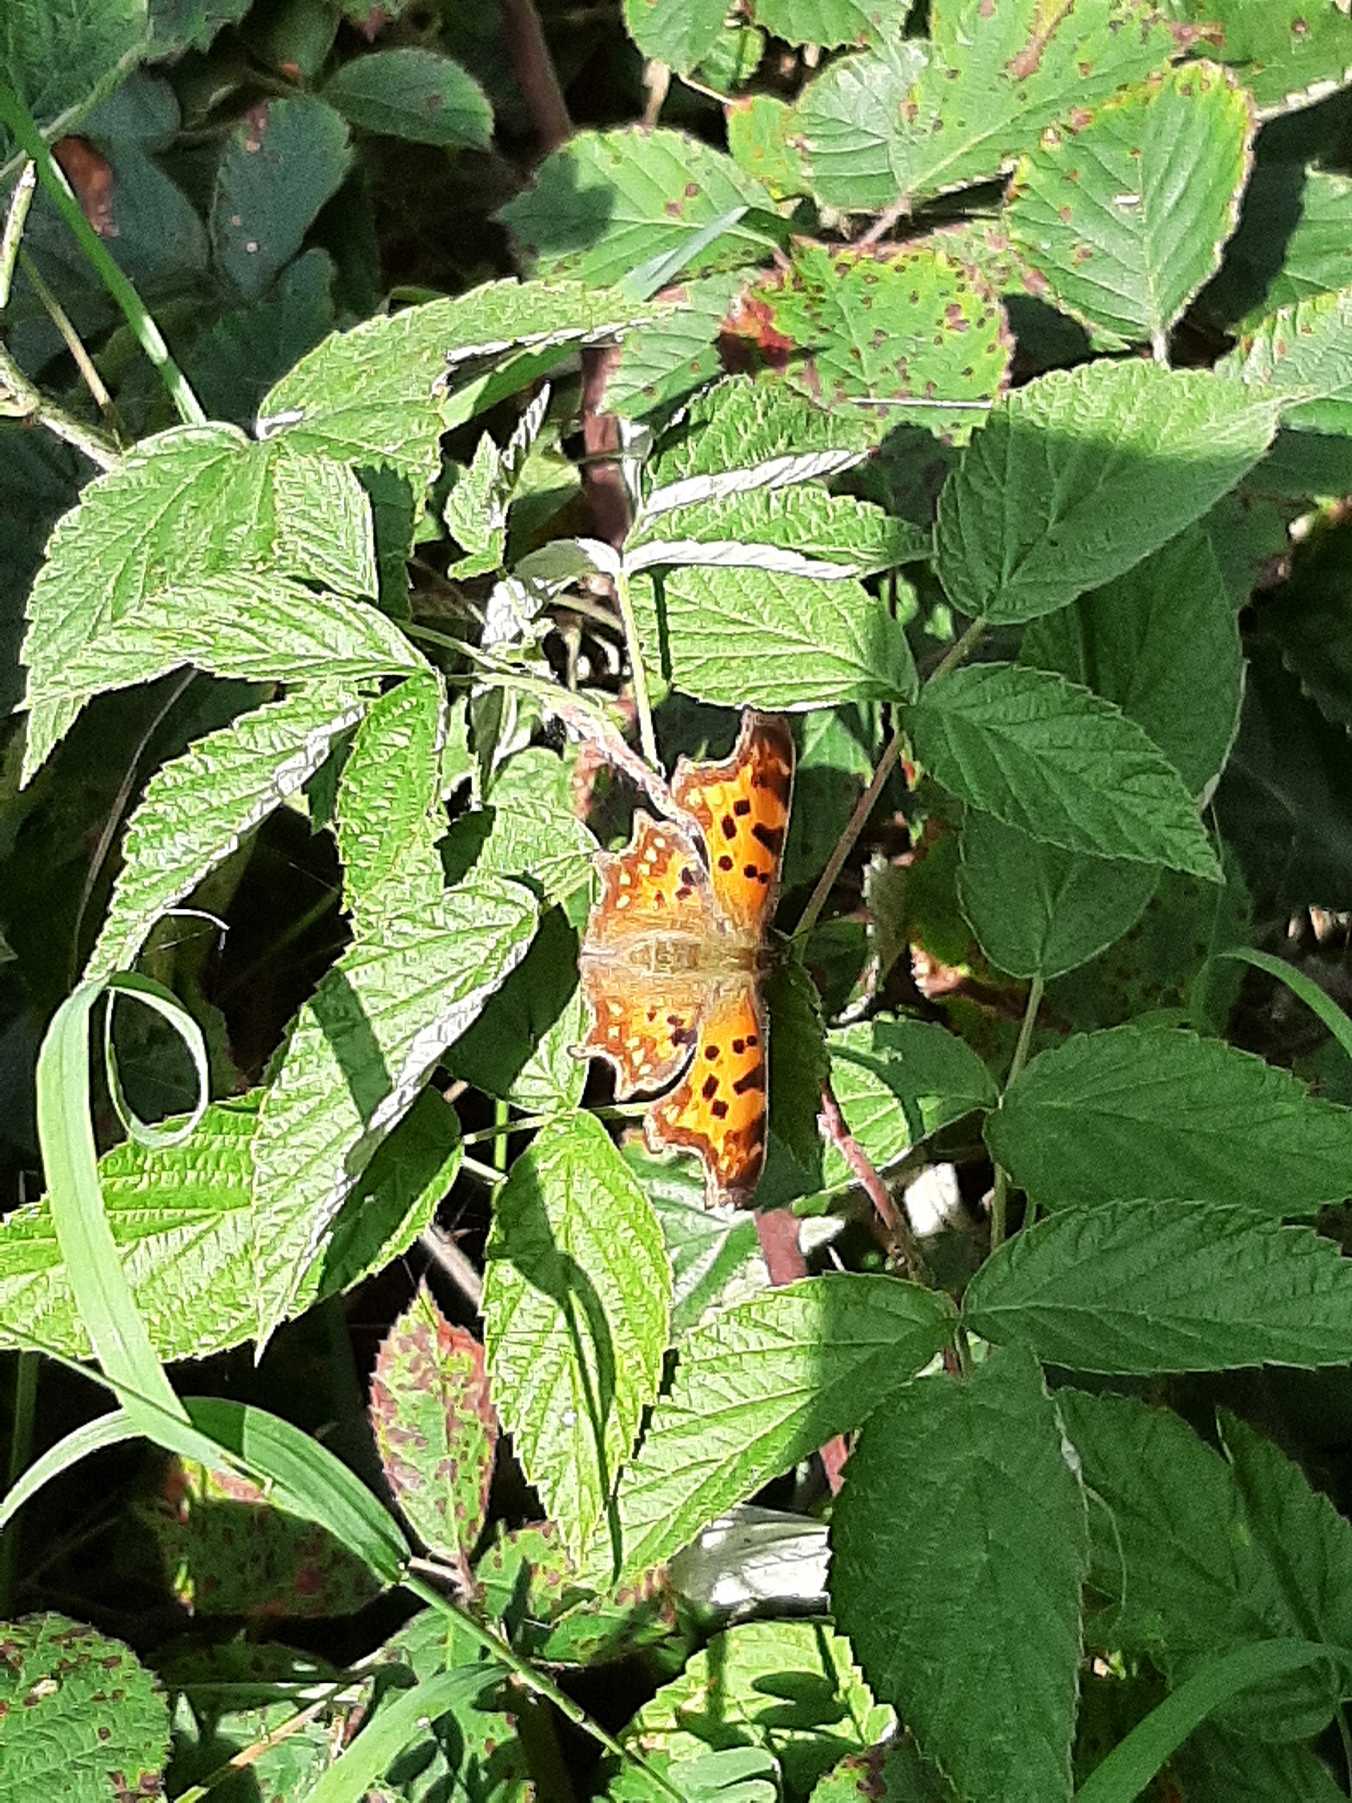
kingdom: Animalia
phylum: Arthropoda
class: Insecta
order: Lepidoptera
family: Nymphalidae
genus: Polygonia
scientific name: Polygonia c-album
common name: Det hvide C
